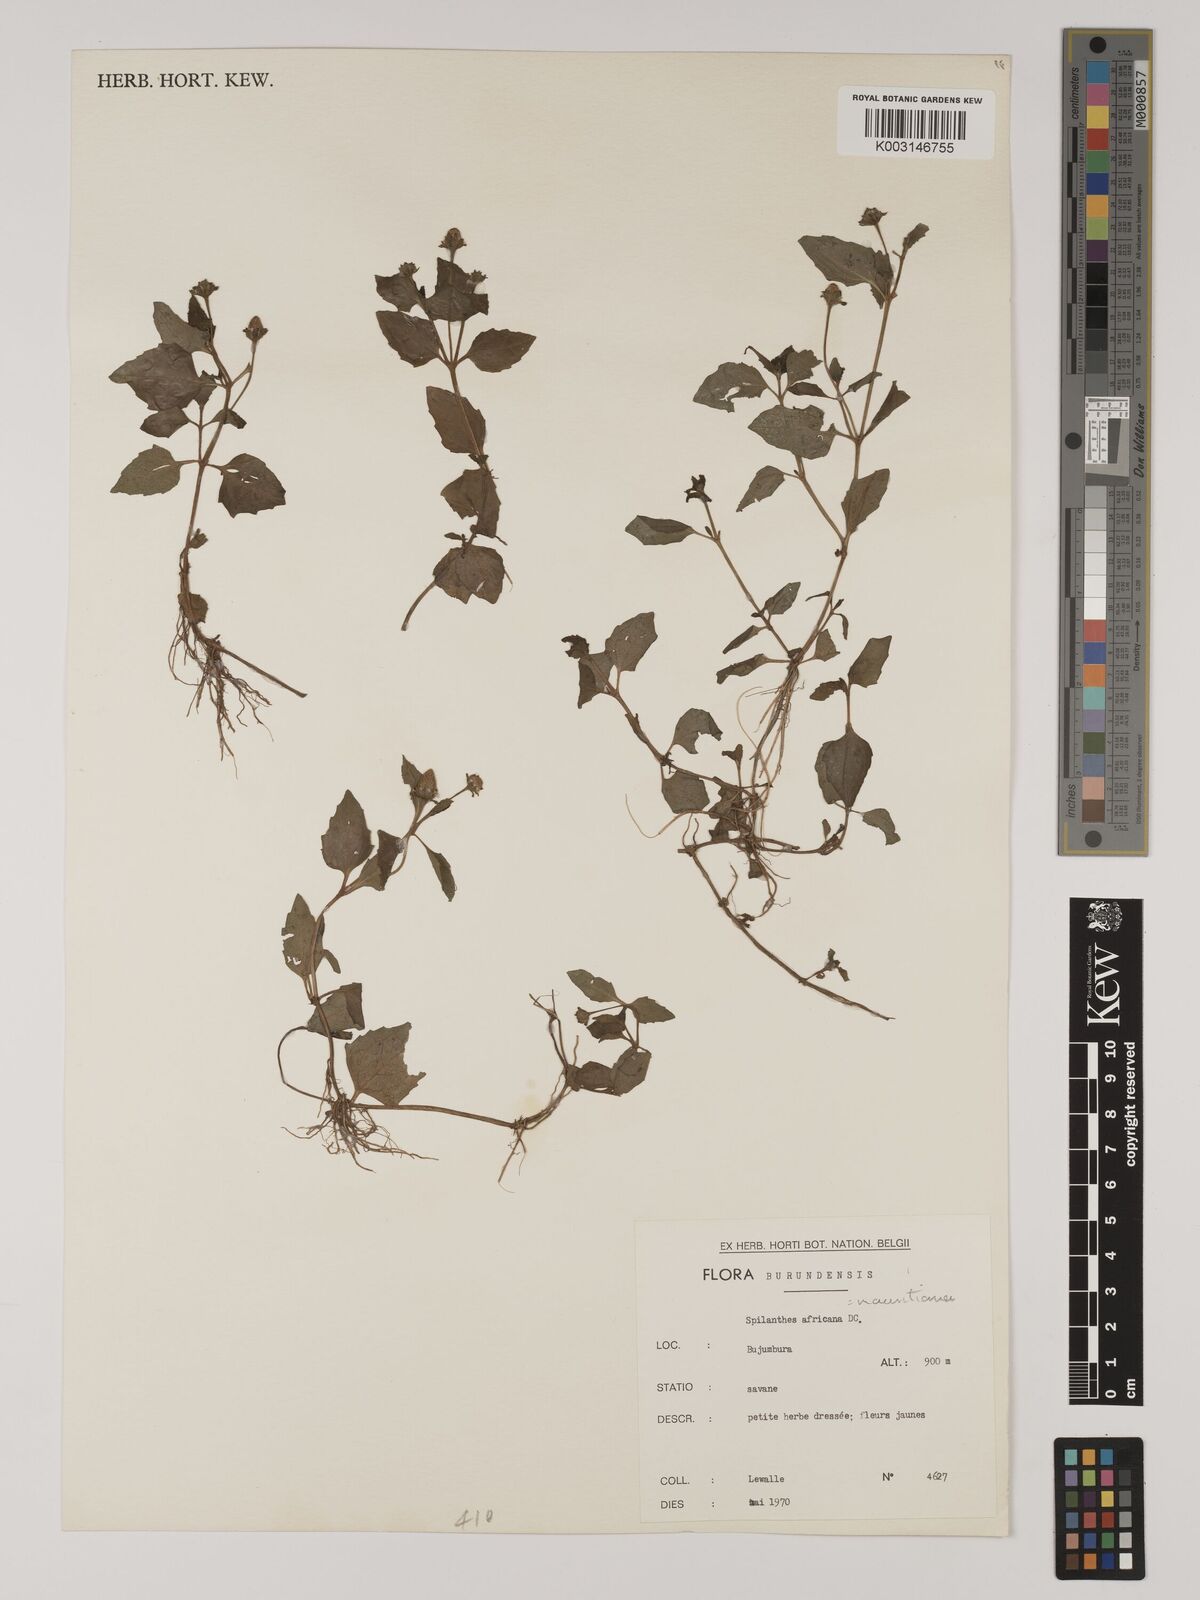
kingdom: Plantae
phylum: Tracheophyta
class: Magnoliopsida
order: Asterales
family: Asteraceae
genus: Acmella
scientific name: Acmella caulirhiza
